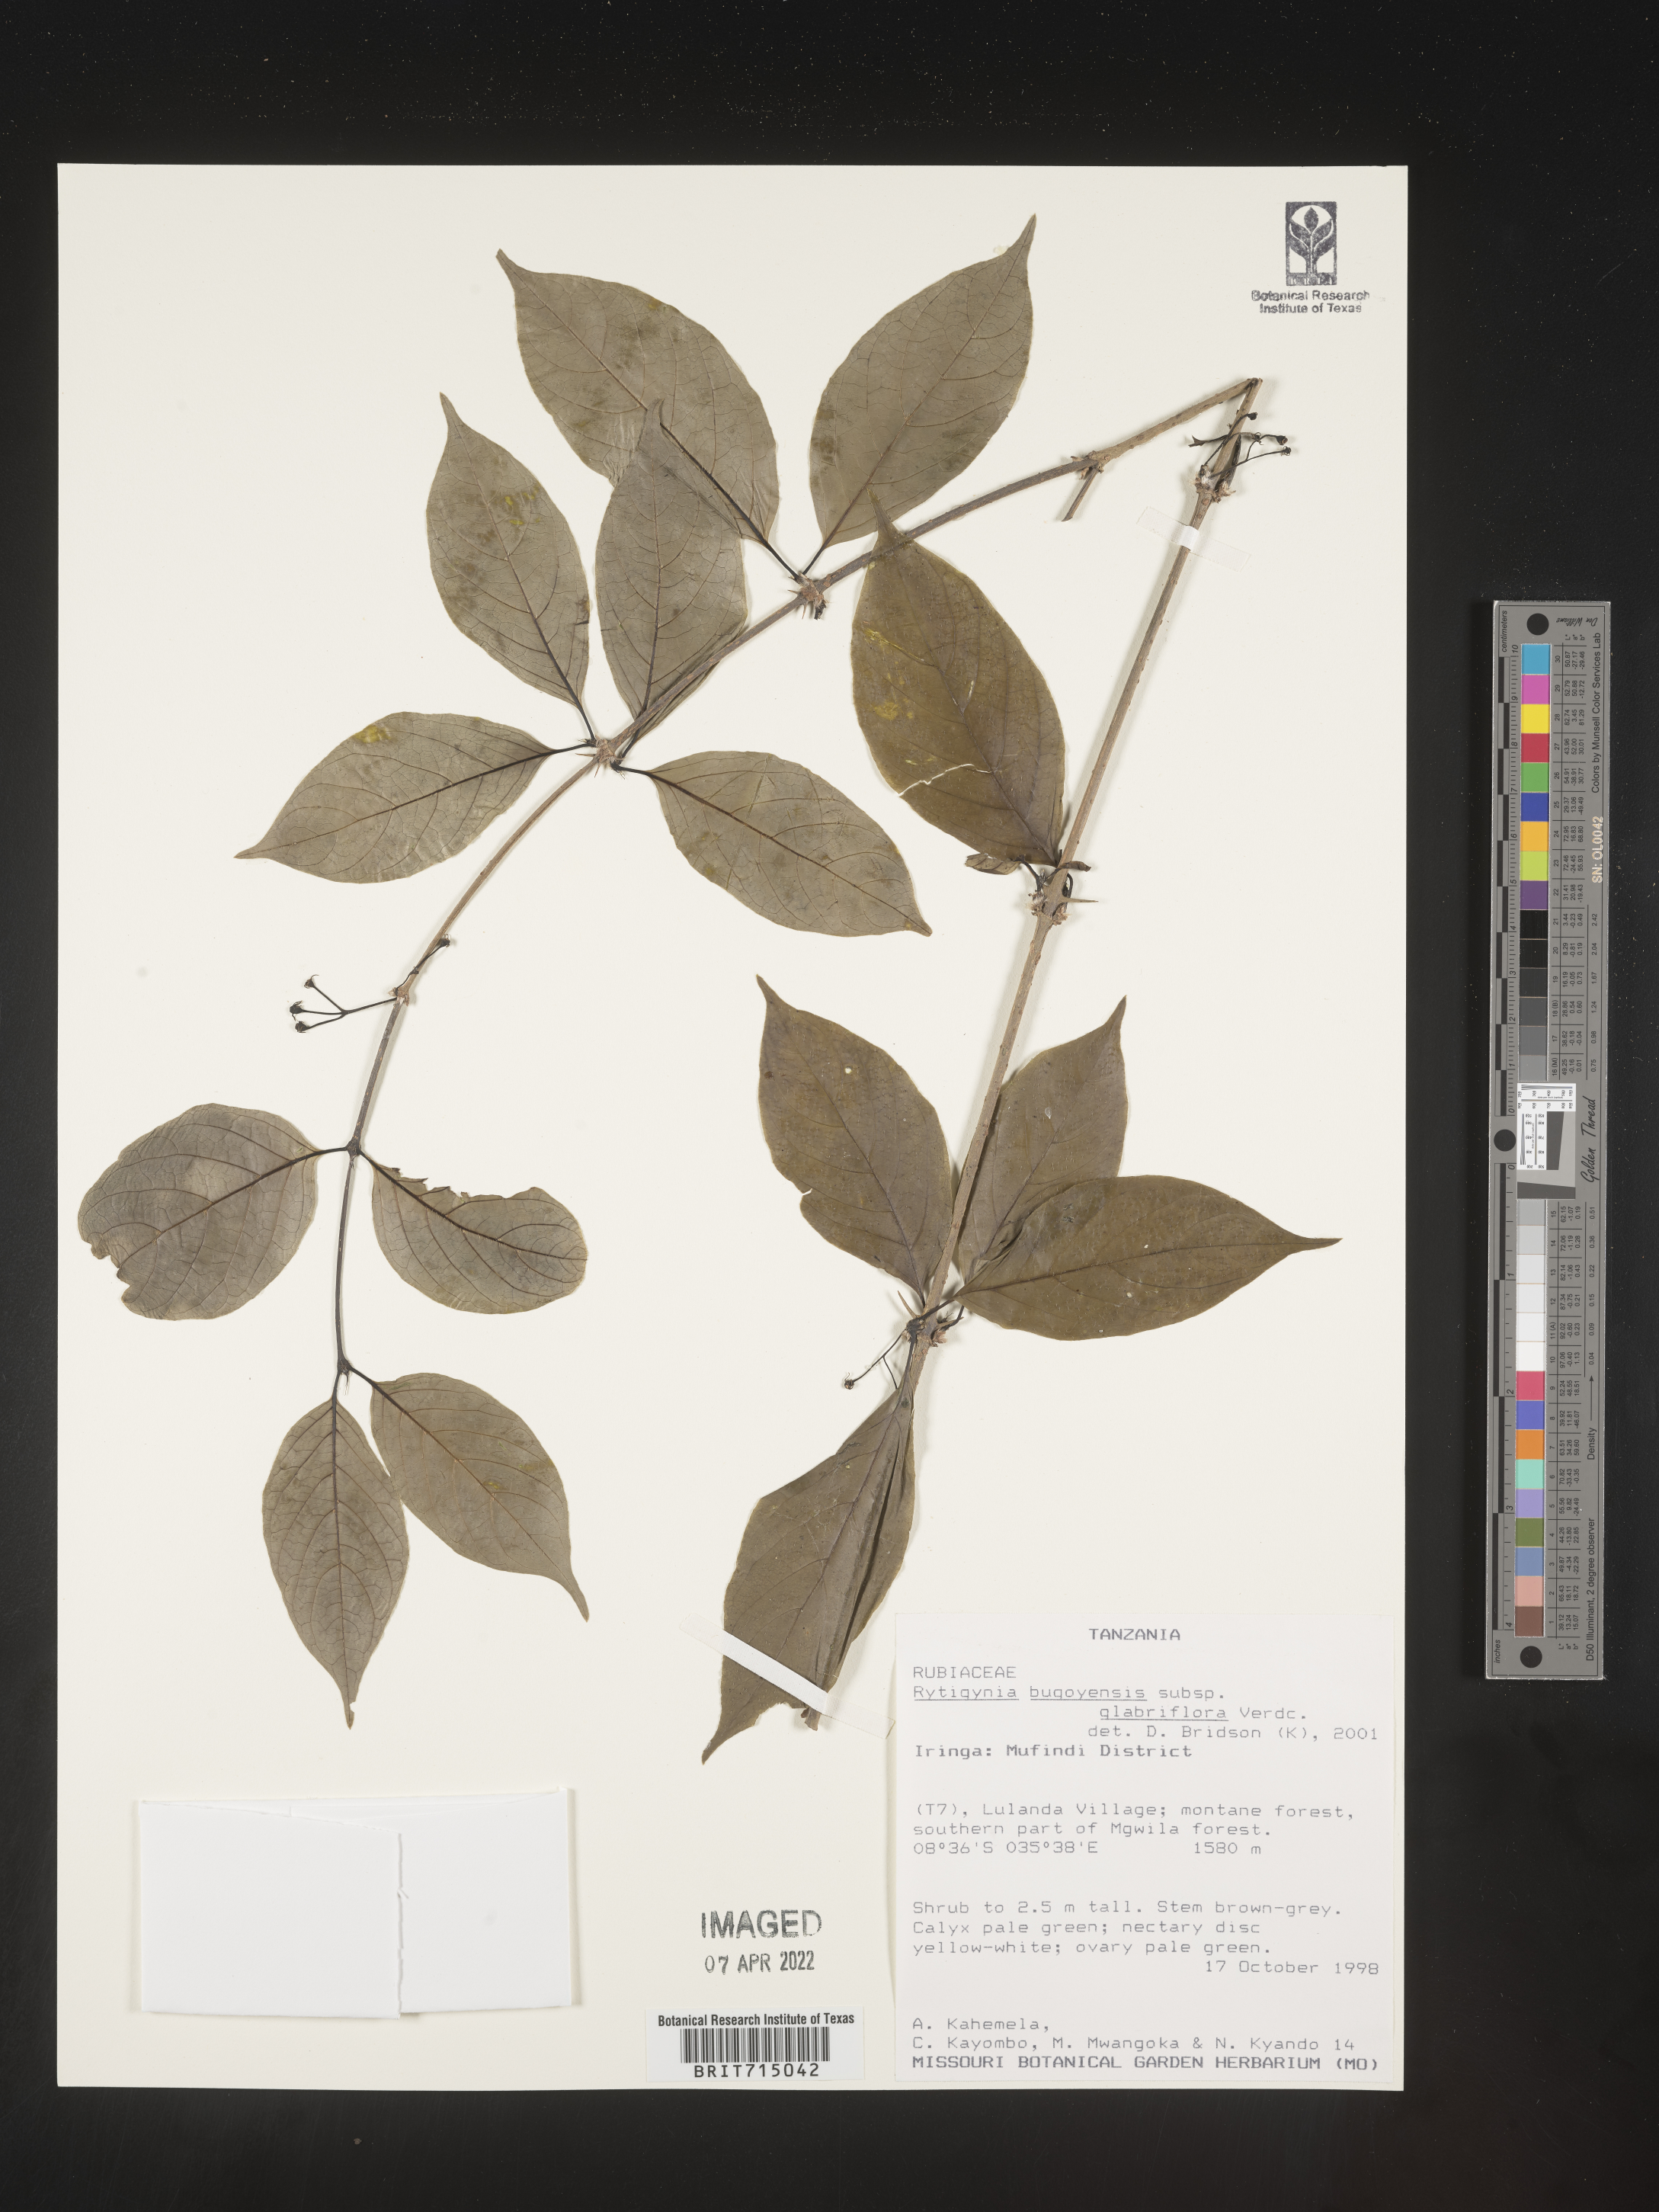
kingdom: Plantae
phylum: Tracheophyta
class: Magnoliopsida
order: Gentianales
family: Rubiaceae
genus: Rytigynia
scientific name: Rytigynia
